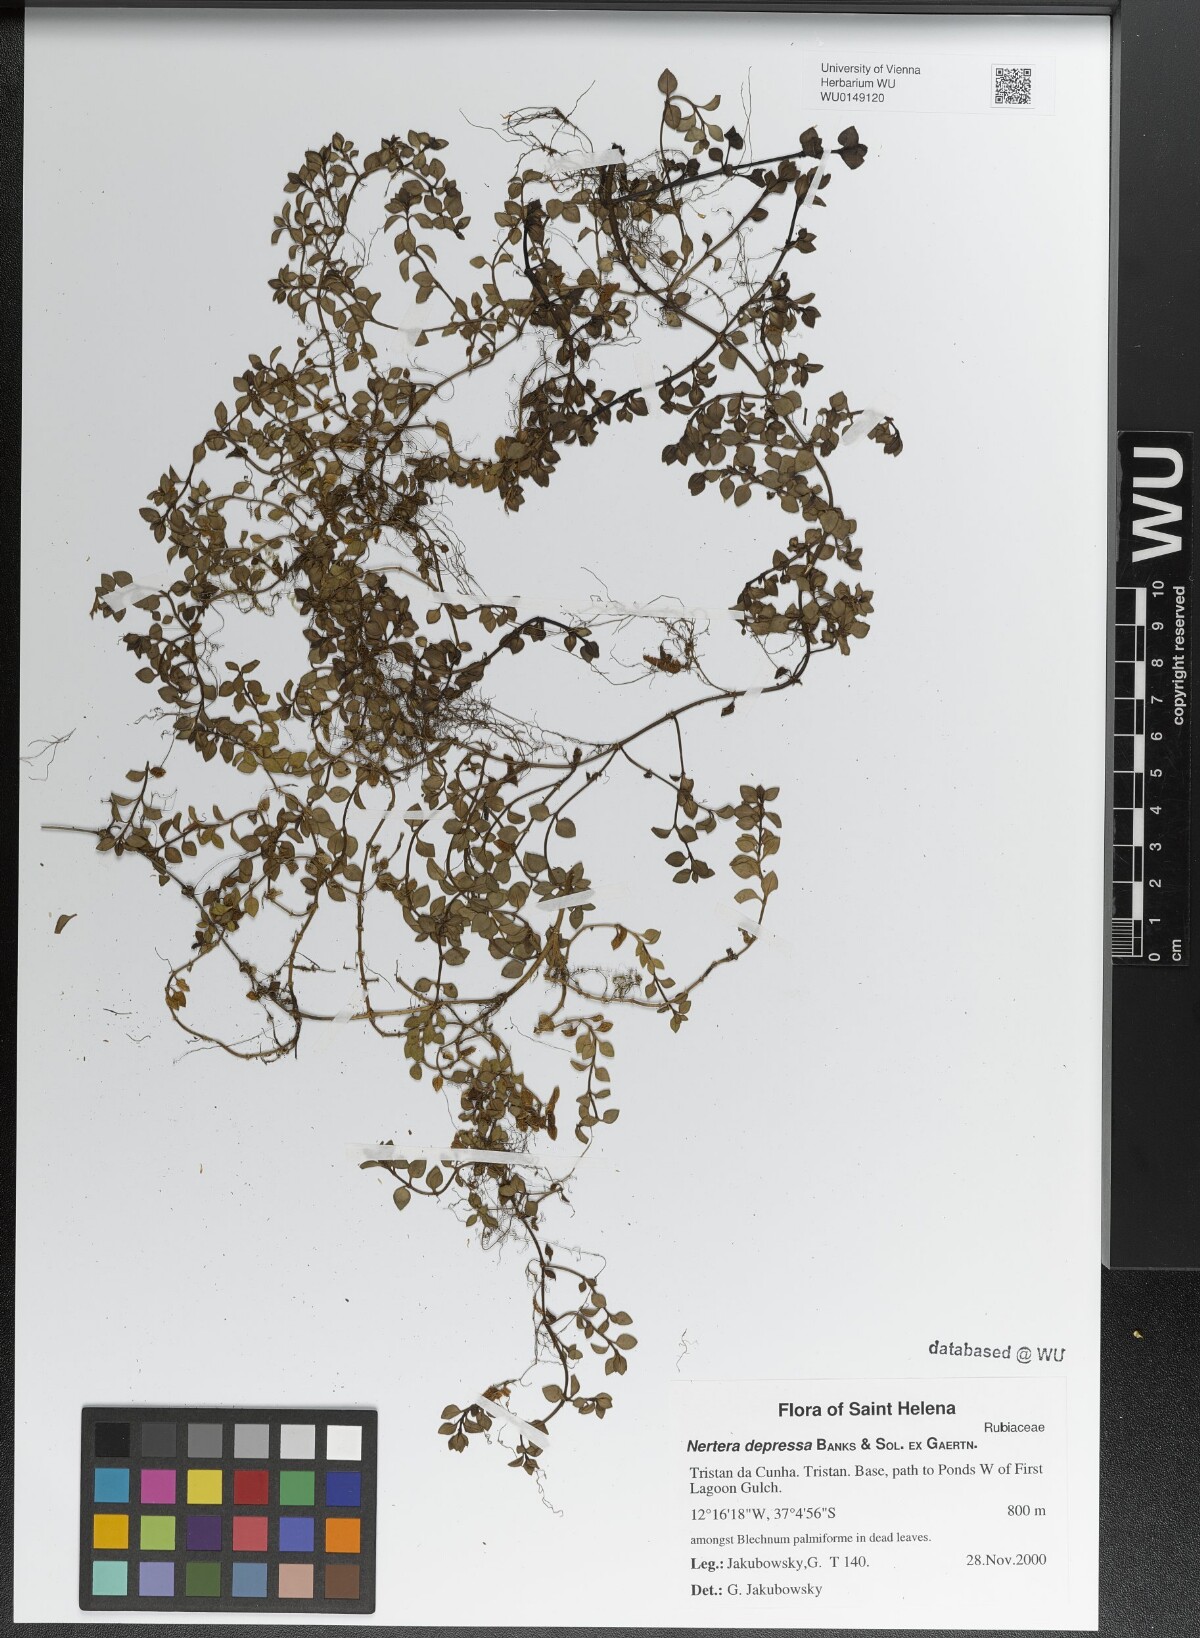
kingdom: Plantae
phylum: Tracheophyta
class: Magnoliopsida
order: Gentianales
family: Rubiaceae
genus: Nertera
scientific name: Nertera granadensis
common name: Beadplant
